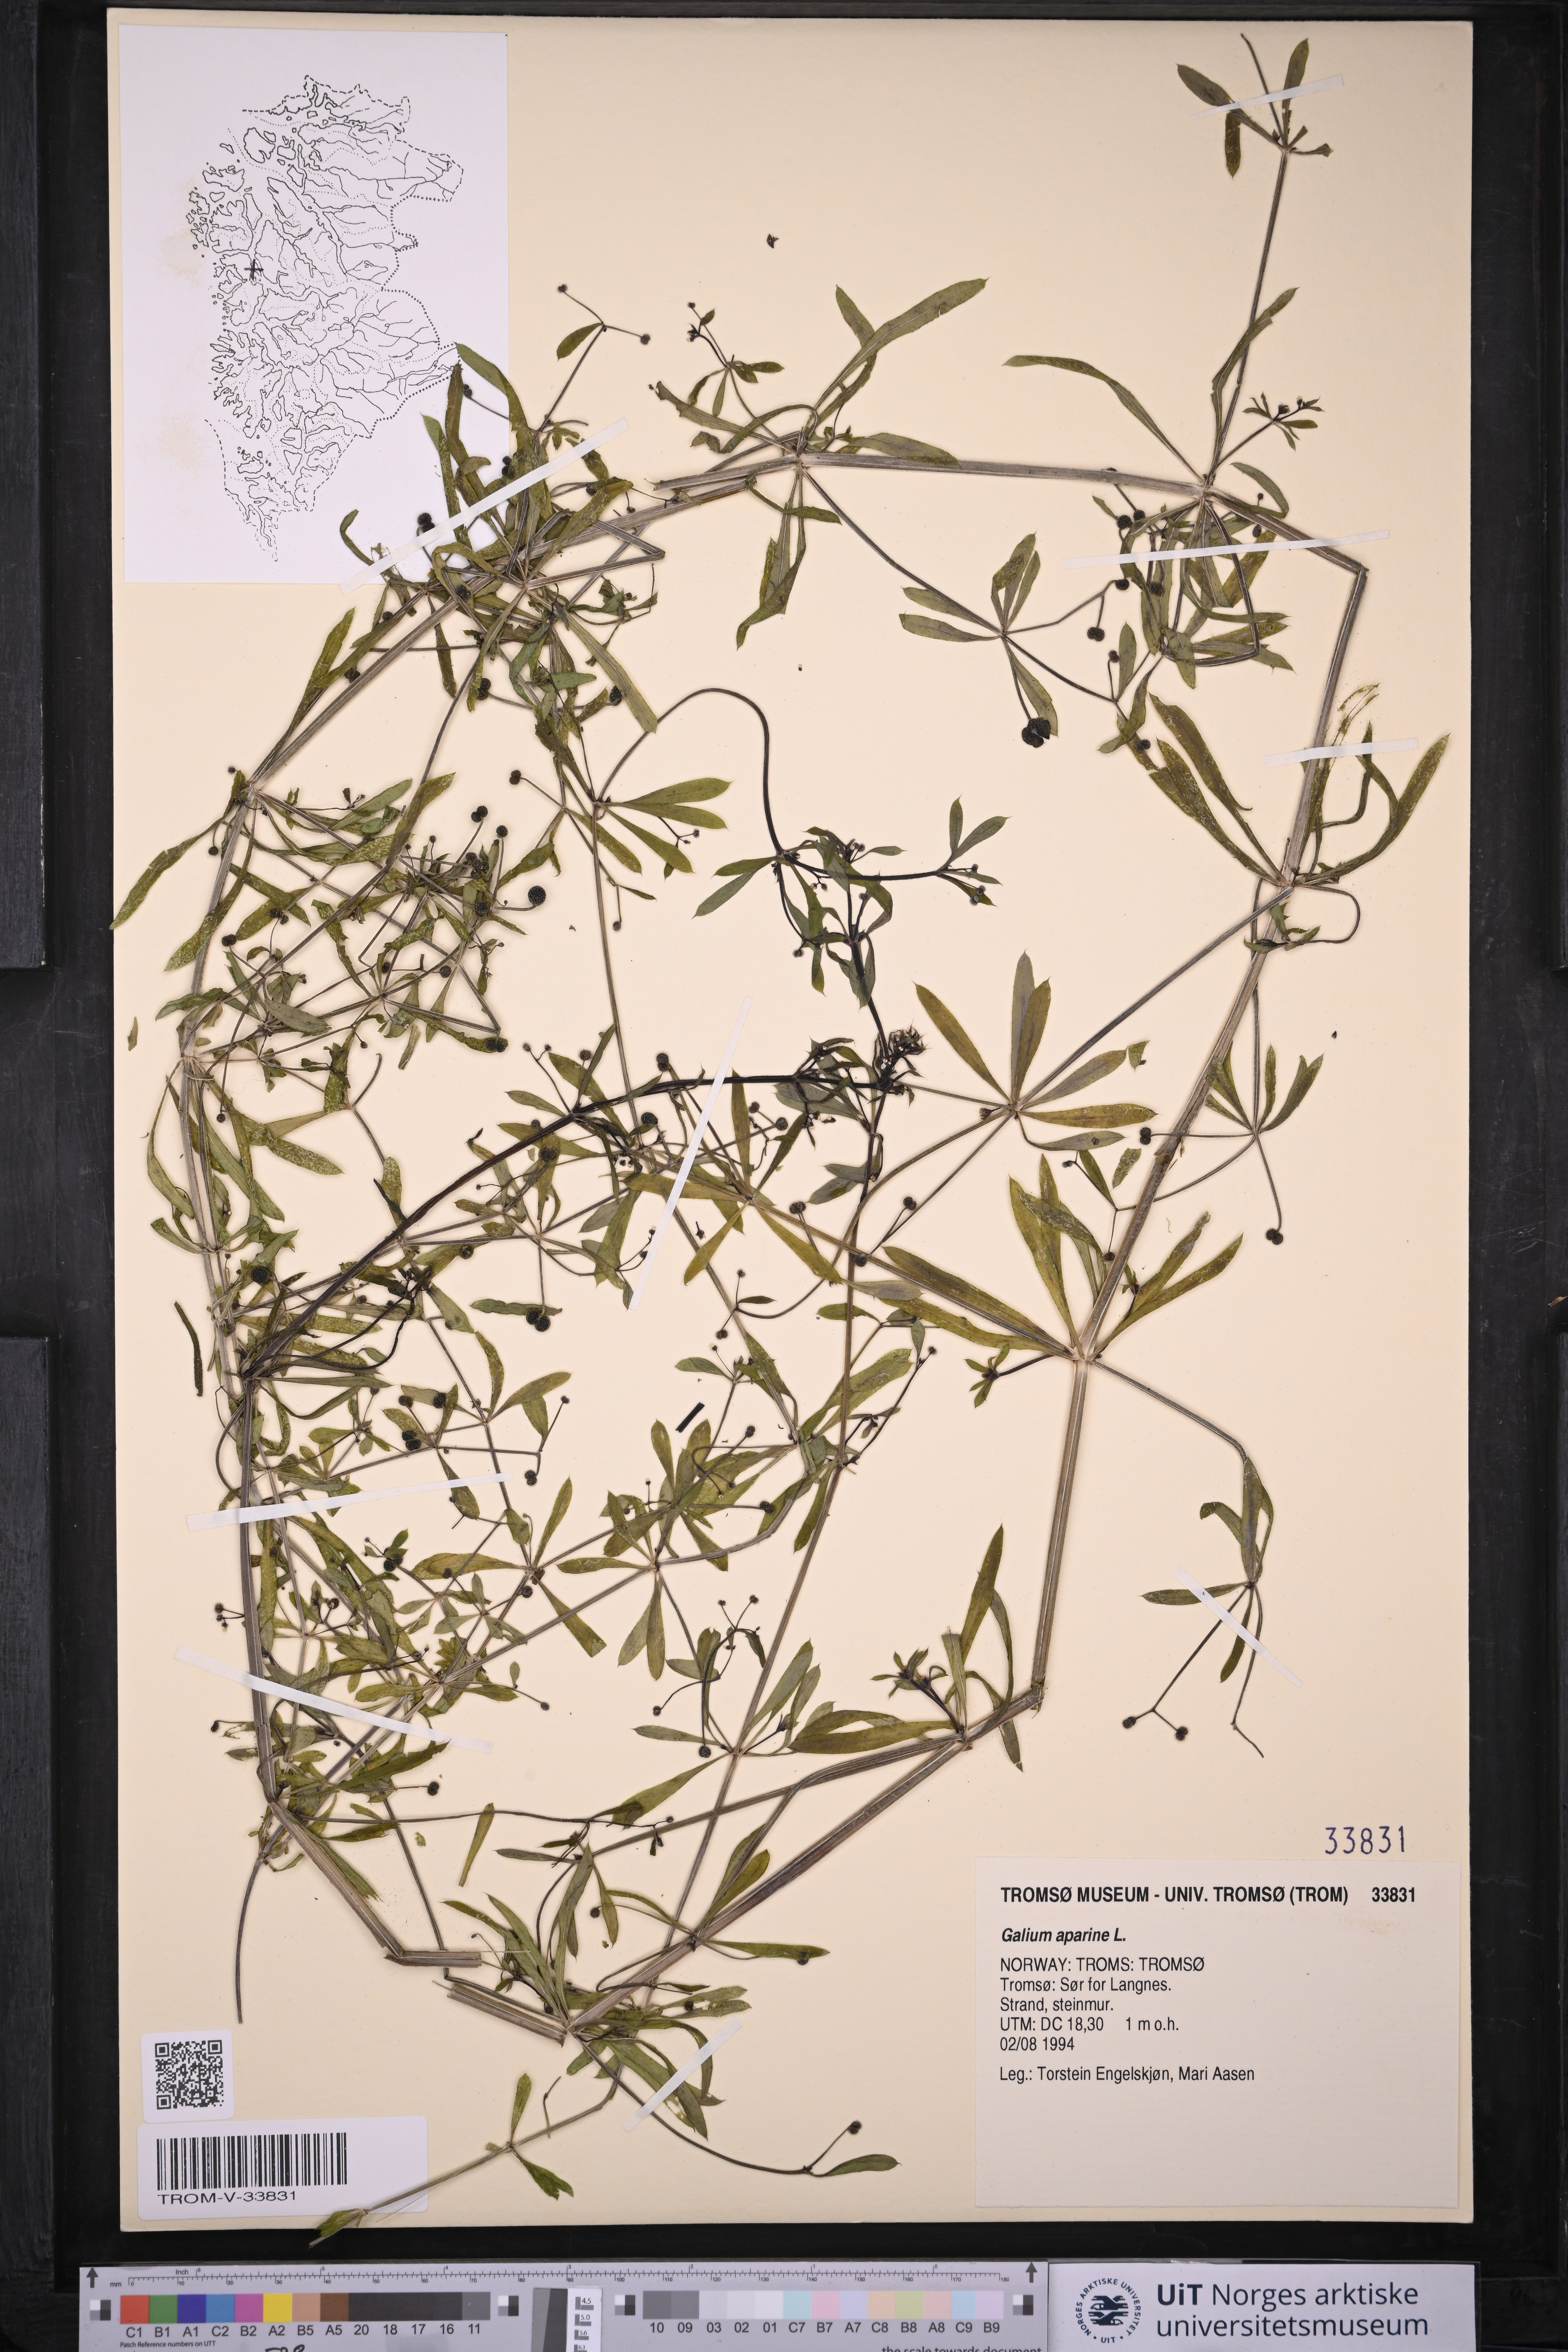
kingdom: Plantae
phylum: Tracheophyta
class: Magnoliopsida
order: Gentianales
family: Rubiaceae
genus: Galium
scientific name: Galium aparine
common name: Cleavers
